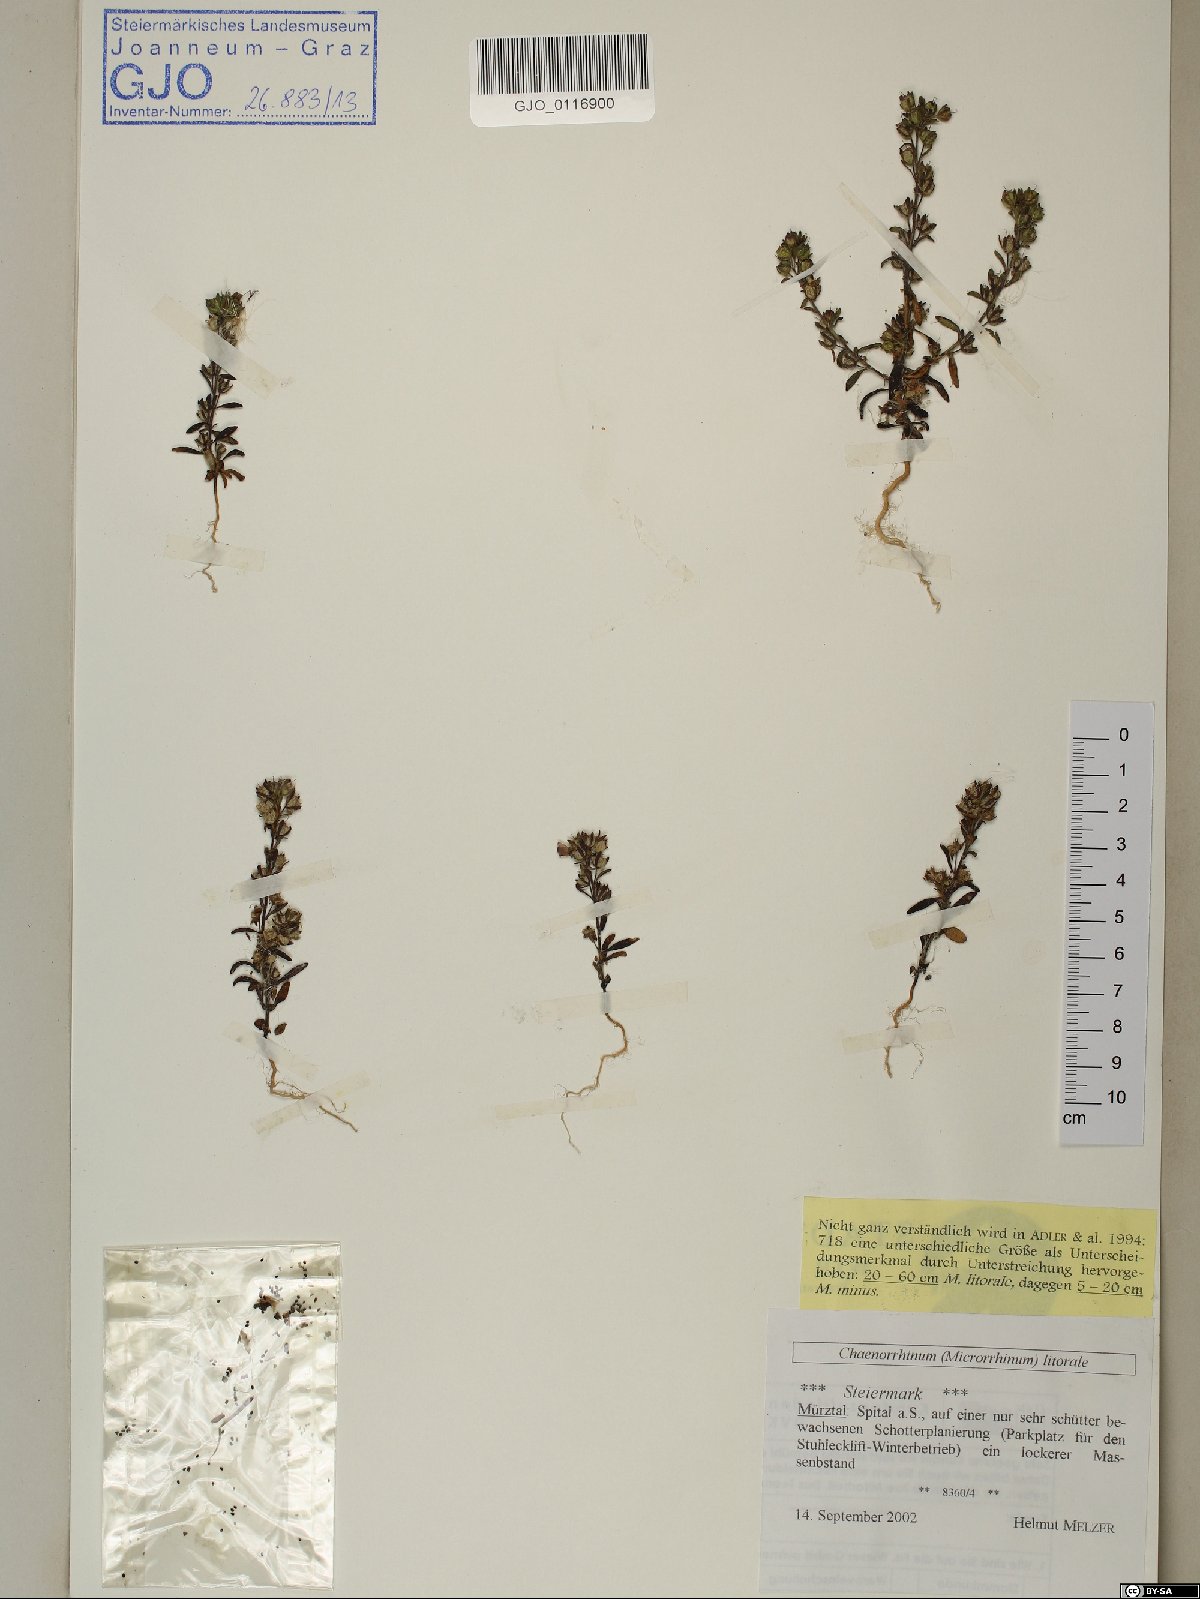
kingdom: Plantae
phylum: Tracheophyta
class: Magnoliopsida
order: Lamiales
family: Plantaginaceae
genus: Chaenorhinum
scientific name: Chaenorhinum litorale
